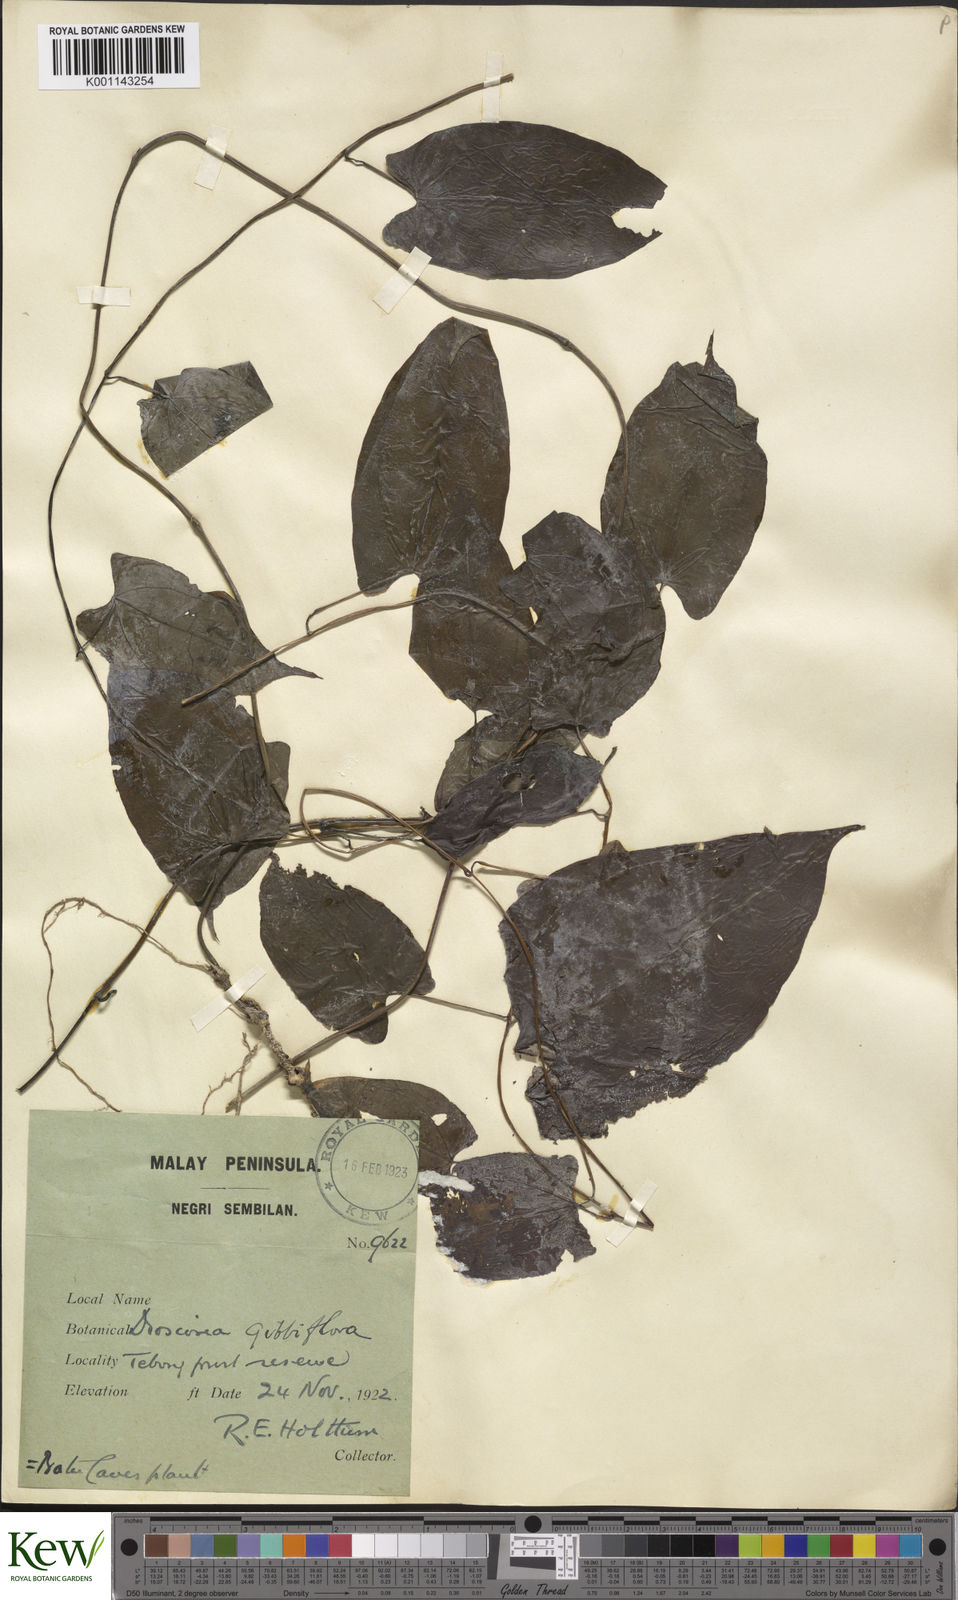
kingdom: Plantae
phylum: Tracheophyta
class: Liliopsida
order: Dioscoreales
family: Dioscoreaceae
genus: Dioscorea
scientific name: Dioscorea filiformis
